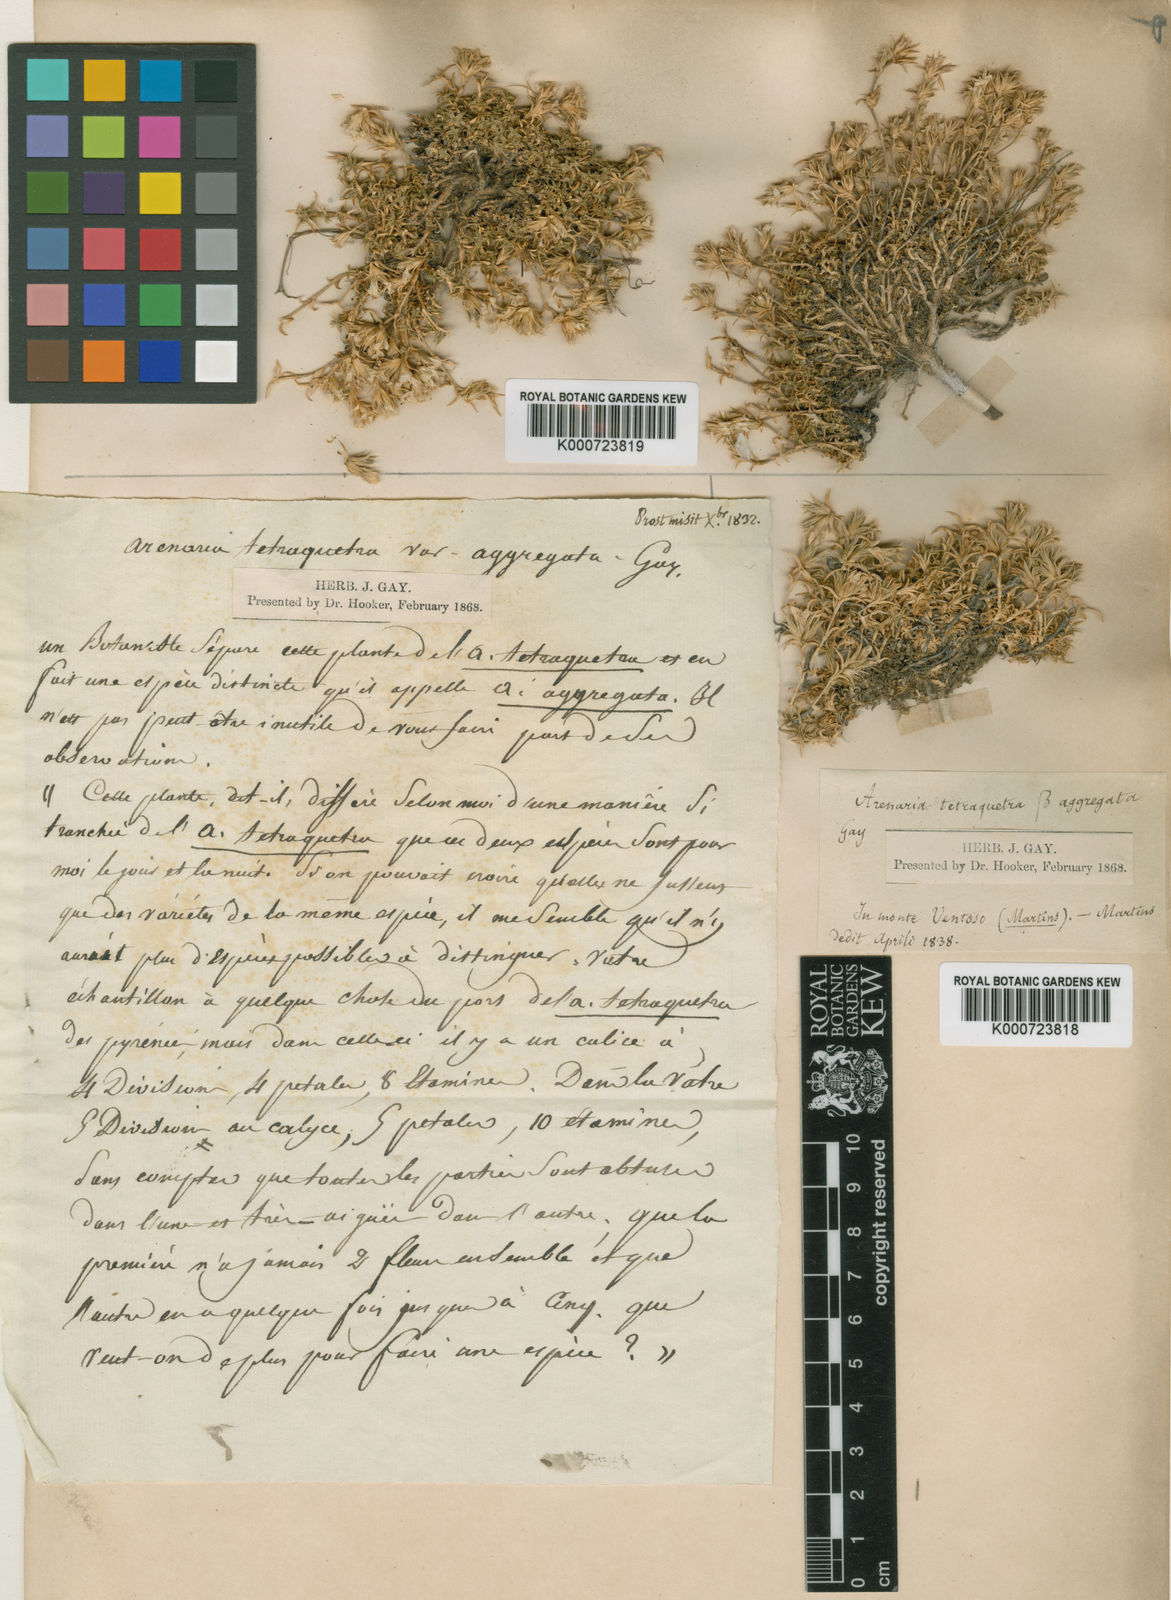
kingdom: Plantae
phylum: Tracheophyta
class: Magnoliopsida
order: Caryophyllales
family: Caryophyllaceae
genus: Arenaria
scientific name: Arenaria erinacea
